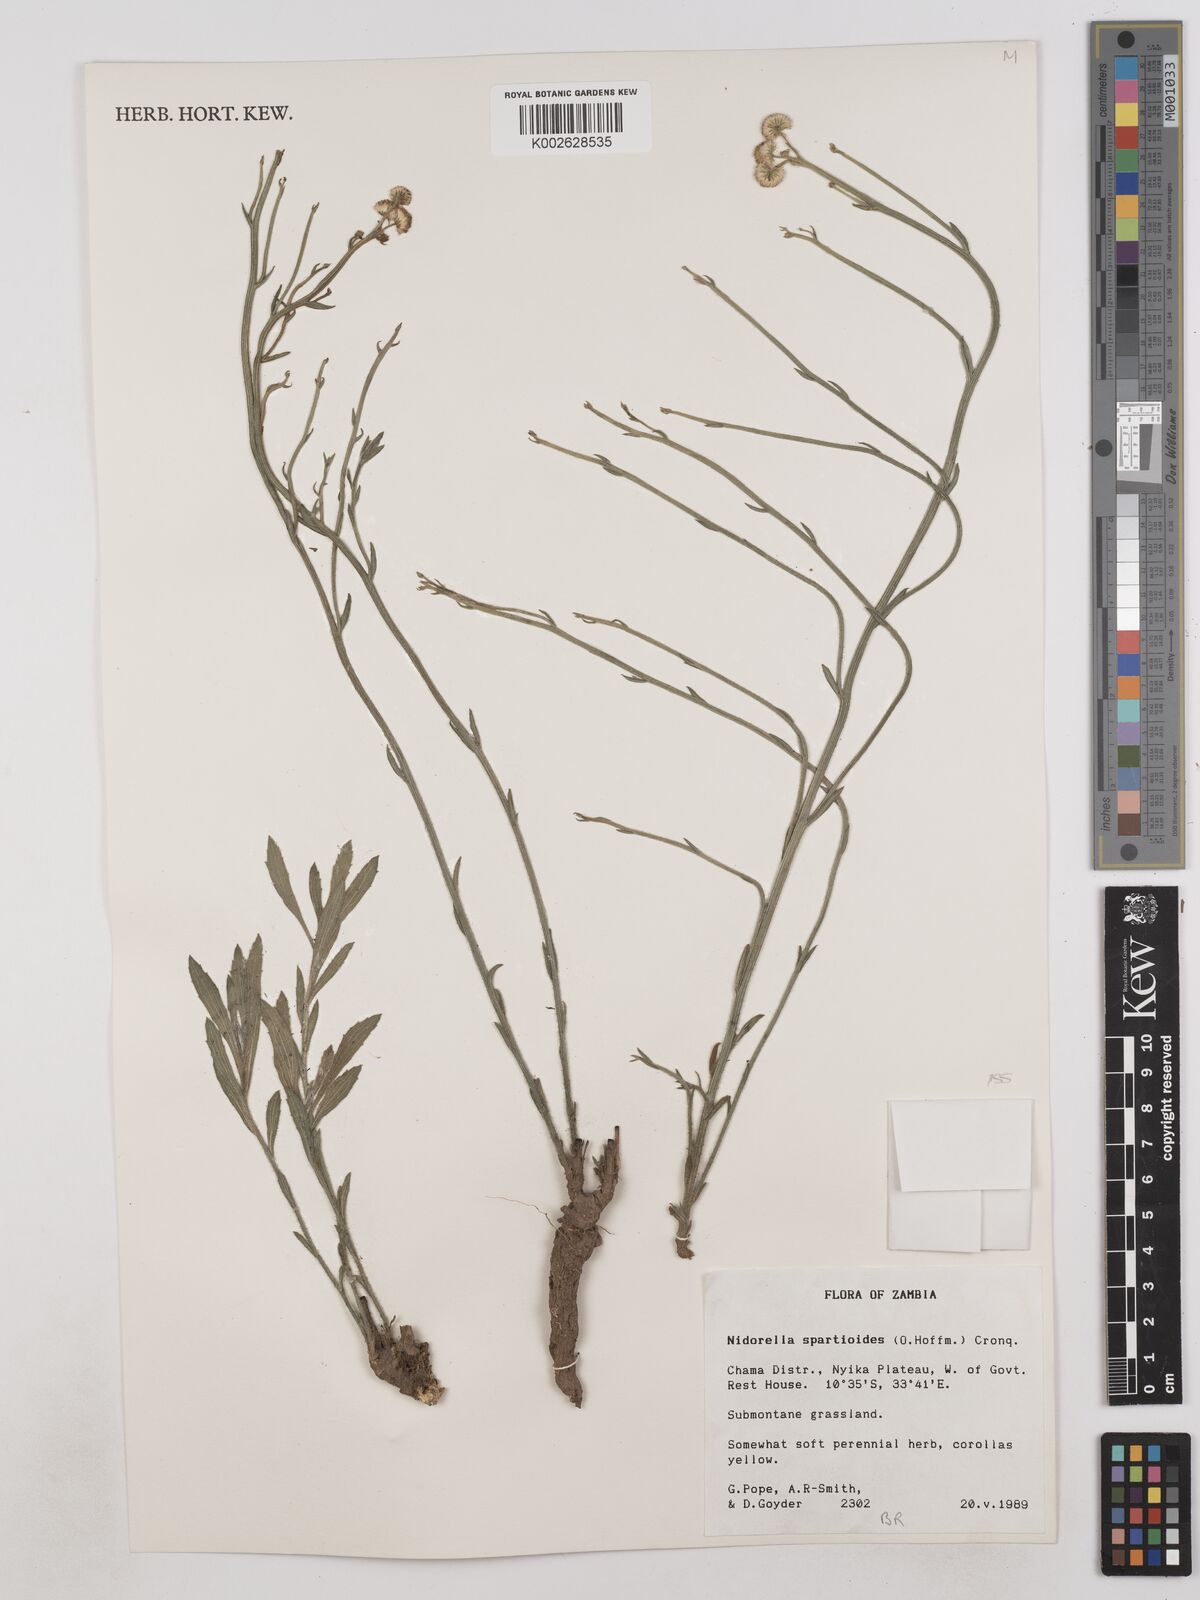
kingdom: Plantae
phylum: Tracheophyta
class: Magnoliopsida
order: Asterales
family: Asteraceae
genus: Nidorella
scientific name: Nidorella spartioides
